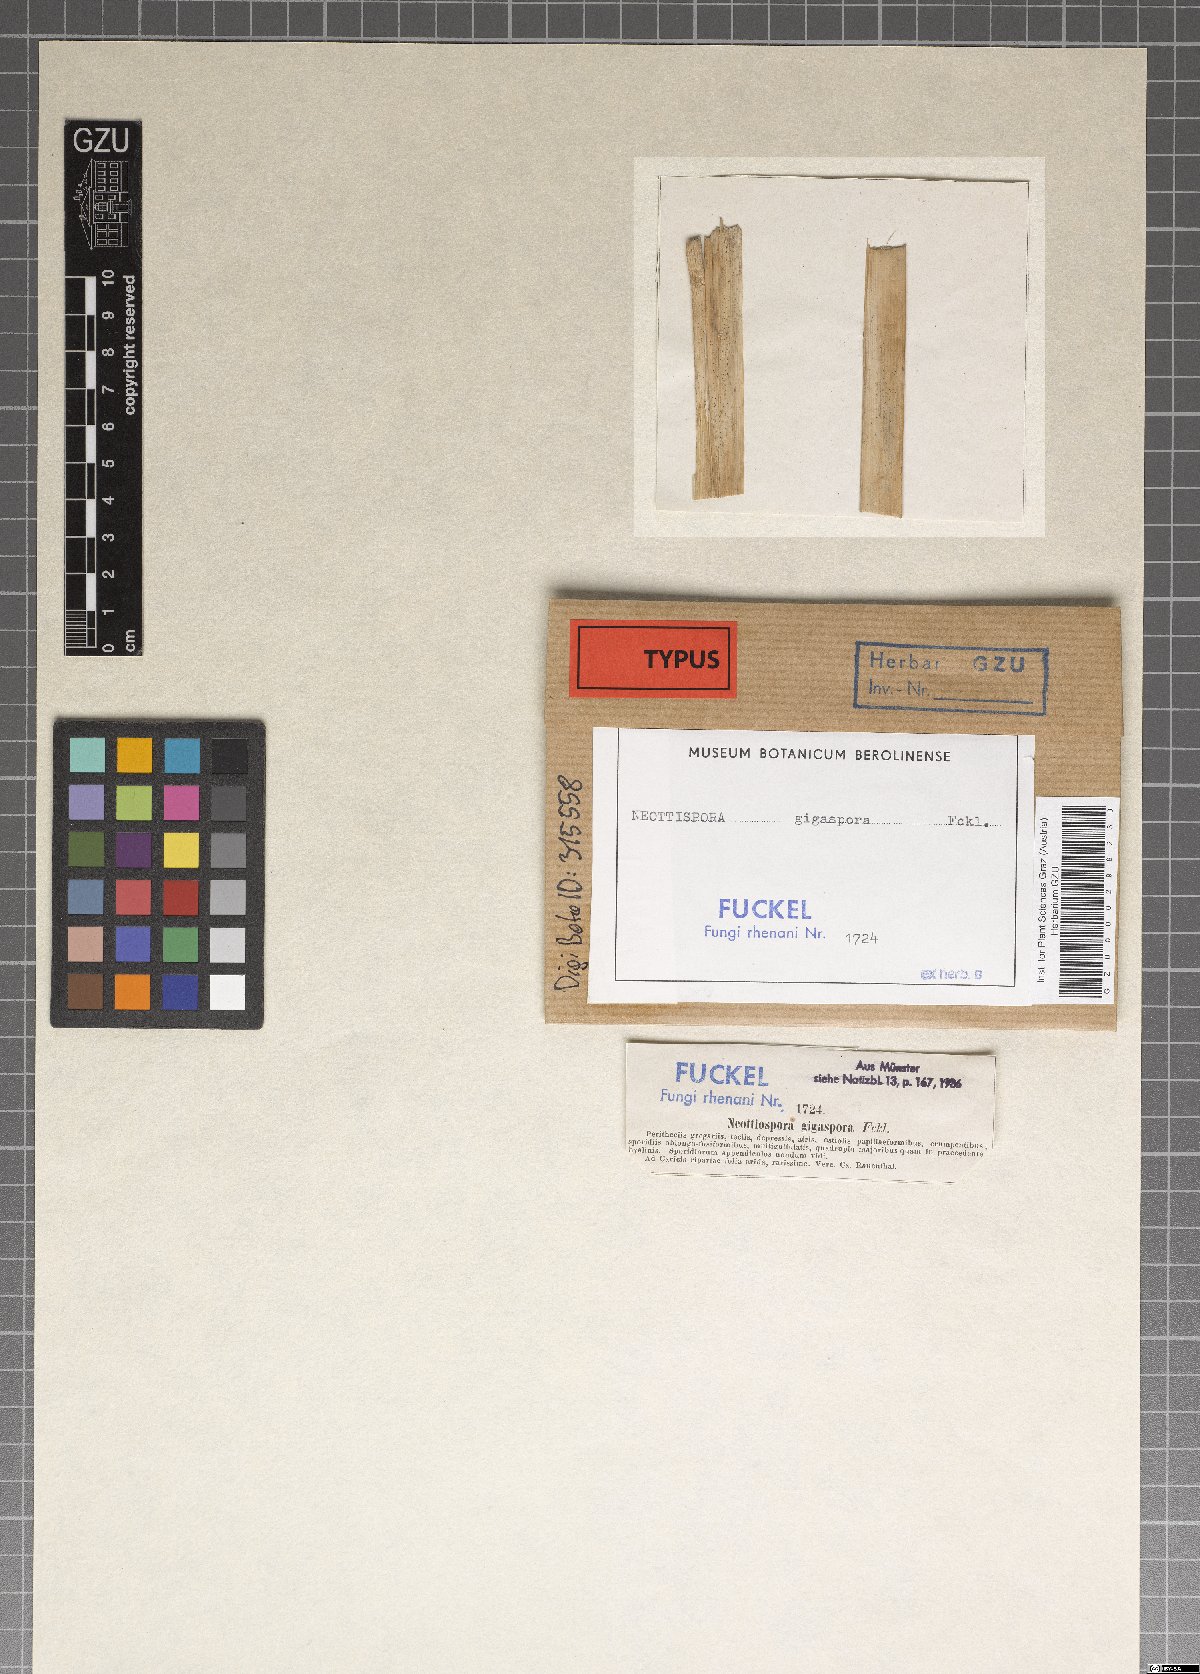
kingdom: Fungi
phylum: Ascomycota
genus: Neottiospora
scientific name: Neottiospora
